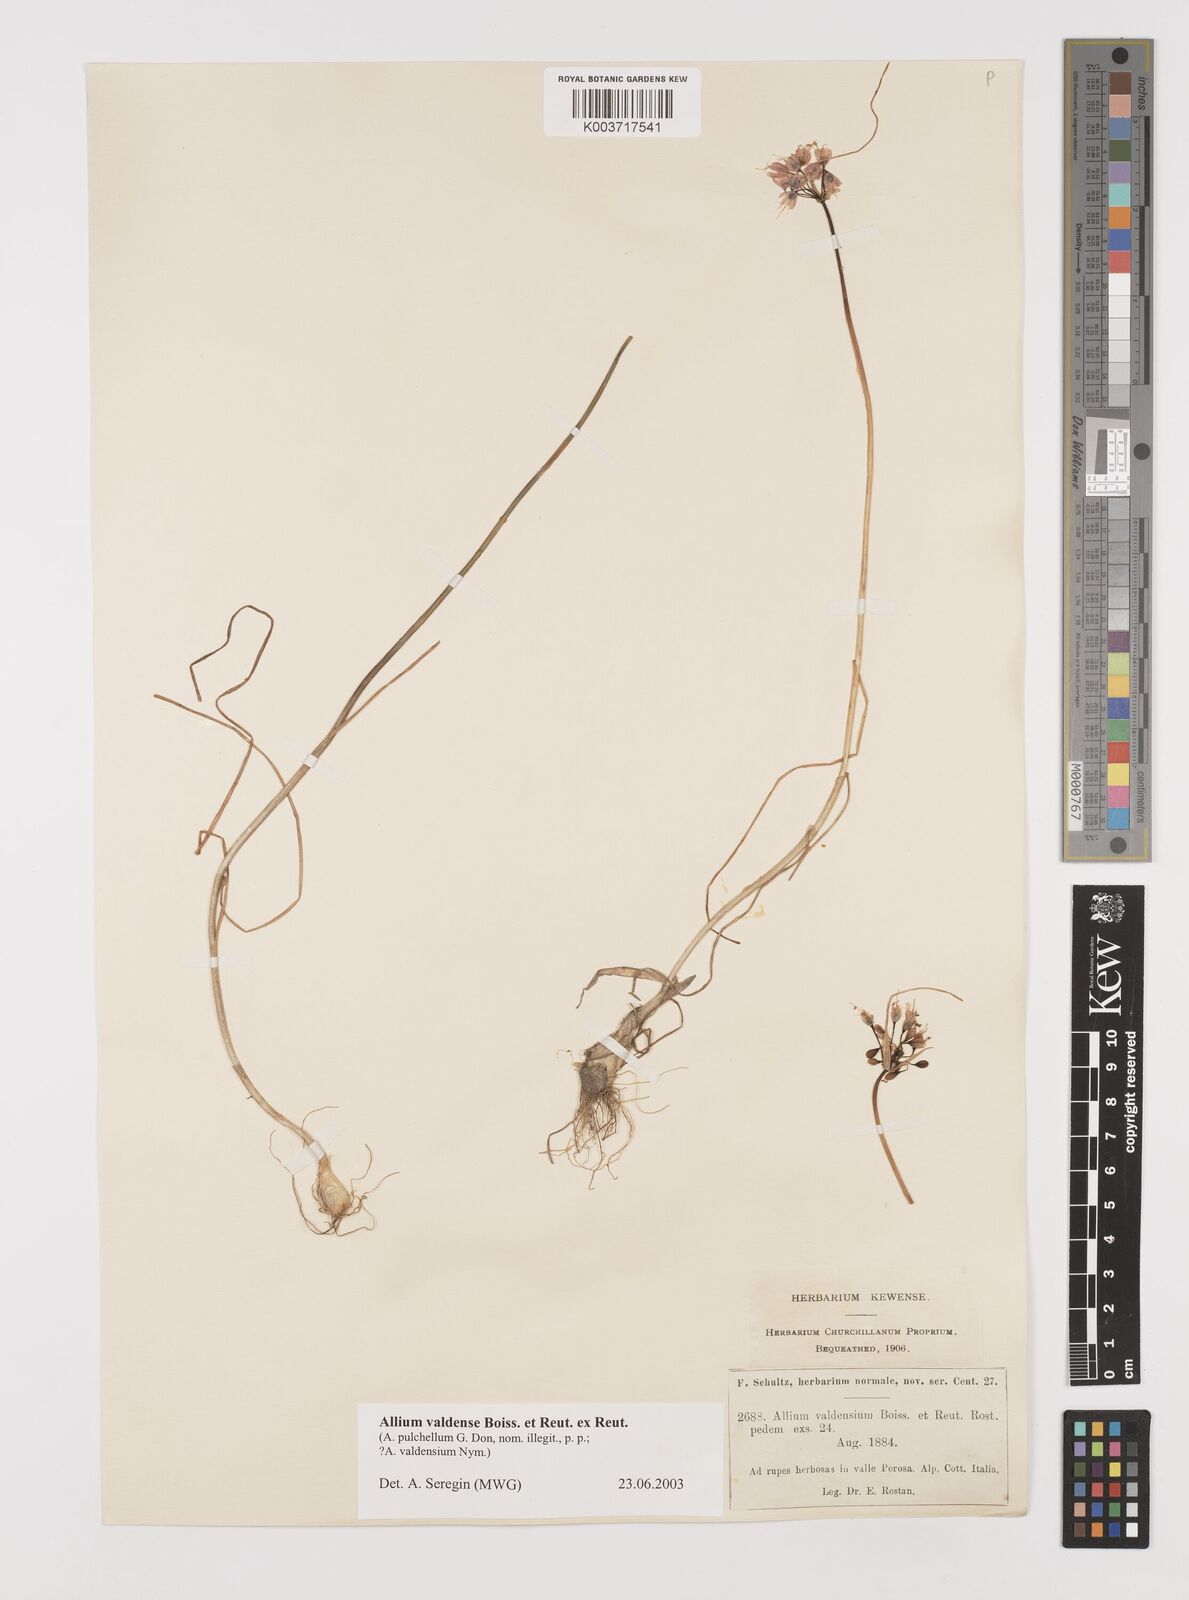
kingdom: Plantae
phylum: Tracheophyta
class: Liliopsida
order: Asparagales
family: Amaryllidaceae
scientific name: Amaryllidaceae
